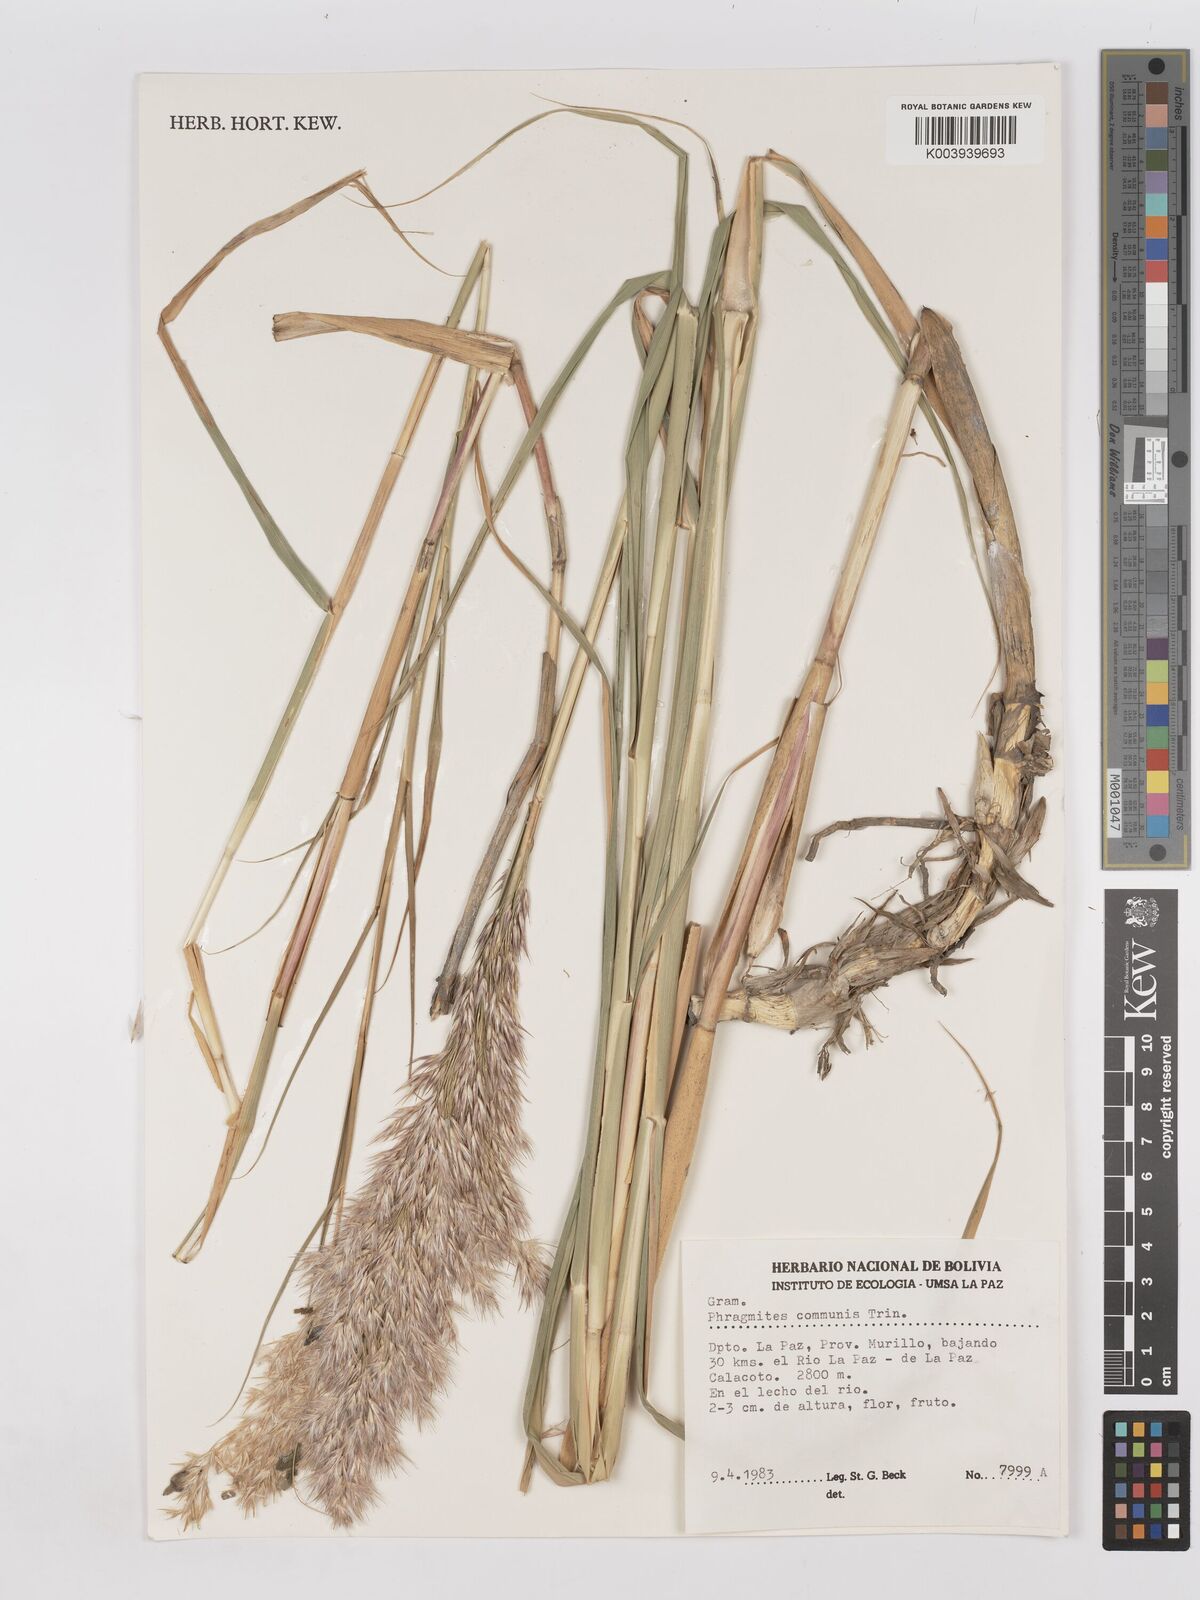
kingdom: Plantae
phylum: Tracheophyta
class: Liliopsida
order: Poales
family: Poaceae
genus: Phragmites
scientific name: Phragmites australis
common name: Common reed
